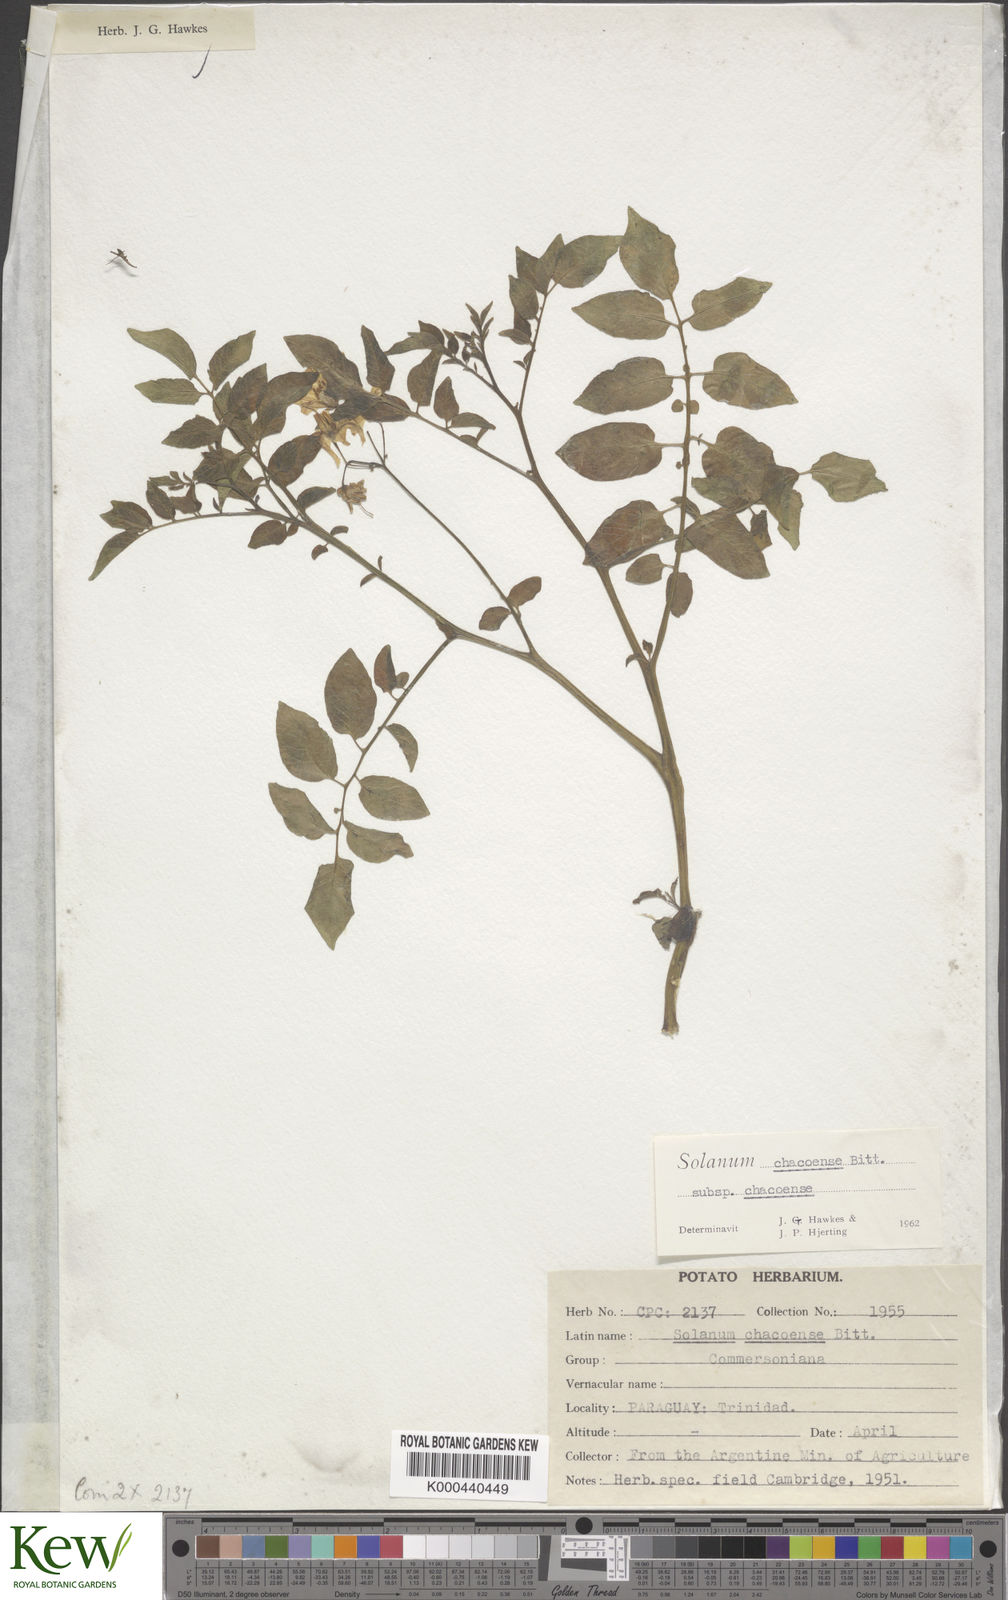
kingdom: Plantae
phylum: Tracheophyta
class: Magnoliopsida
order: Solanales
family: Solanaceae
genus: Solanum
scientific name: Solanum chacoense
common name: Chaco potato
